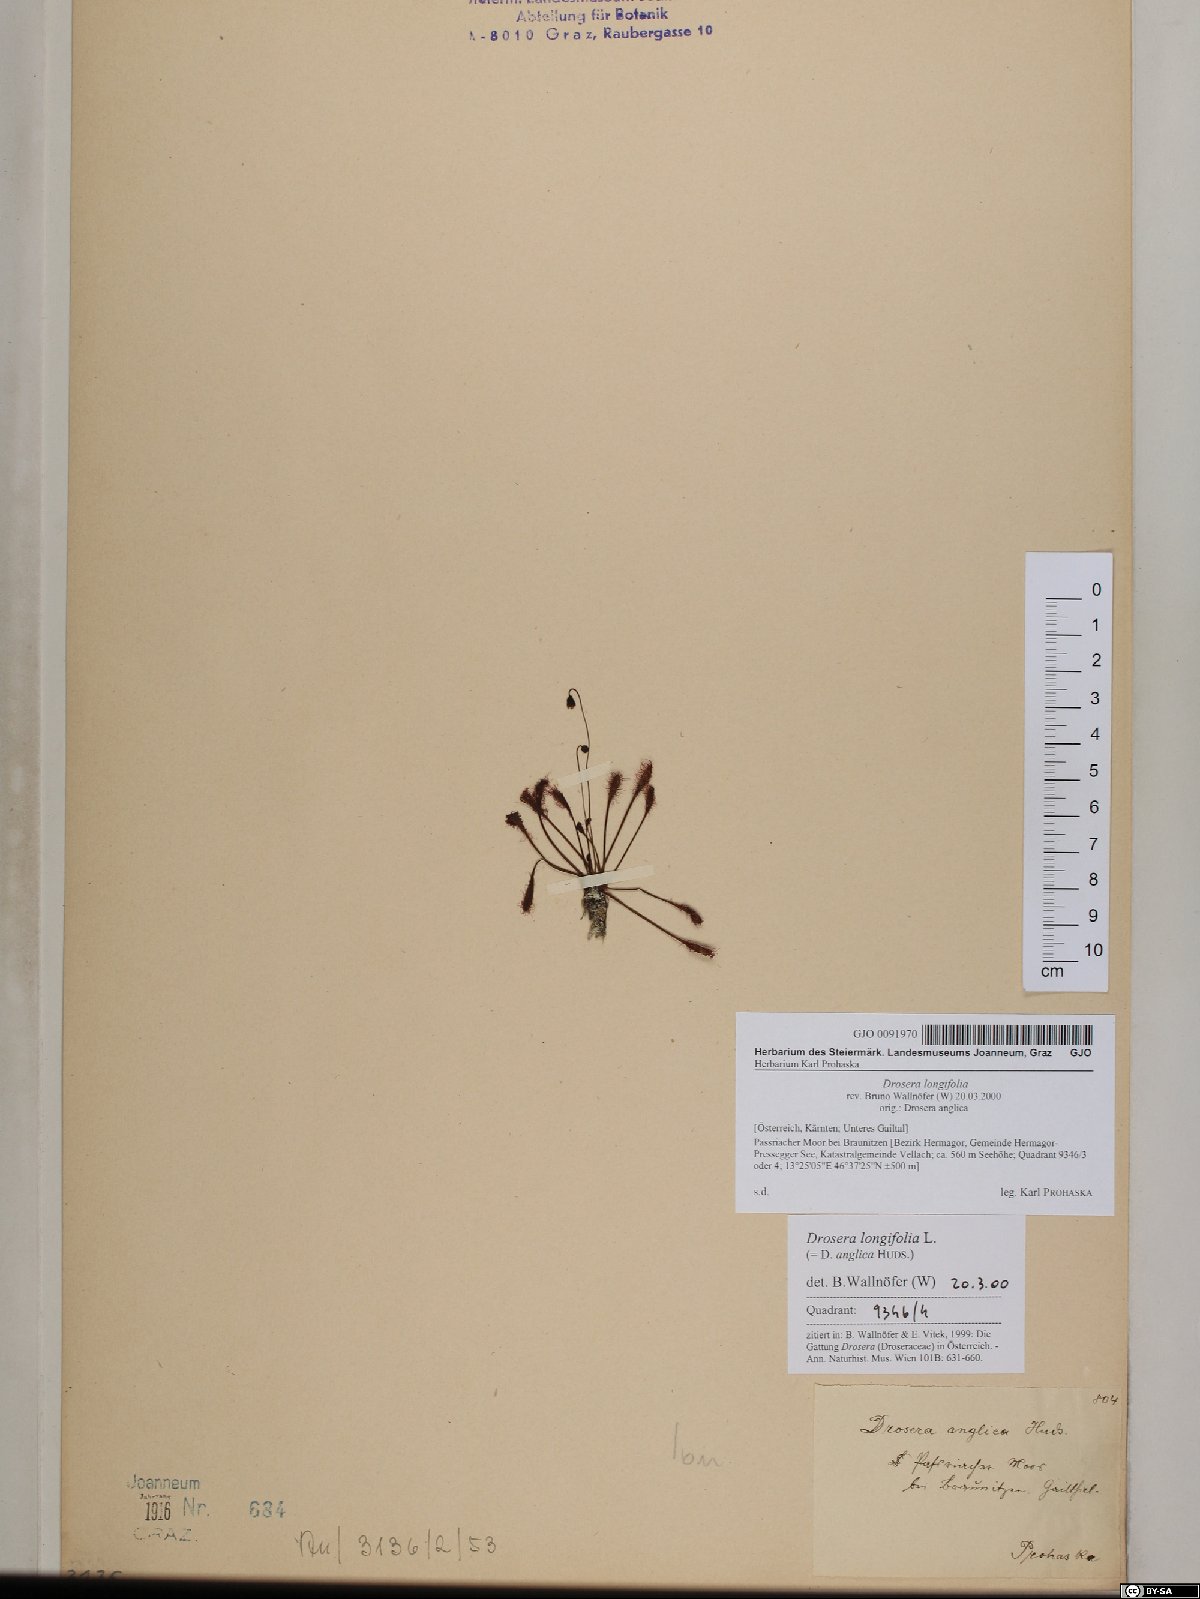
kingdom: Plantae
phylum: Tracheophyta
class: Magnoliopsida
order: Caryophyllales
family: Droseraceae
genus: Drosera
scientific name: Drosera anglica
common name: Great sundew
